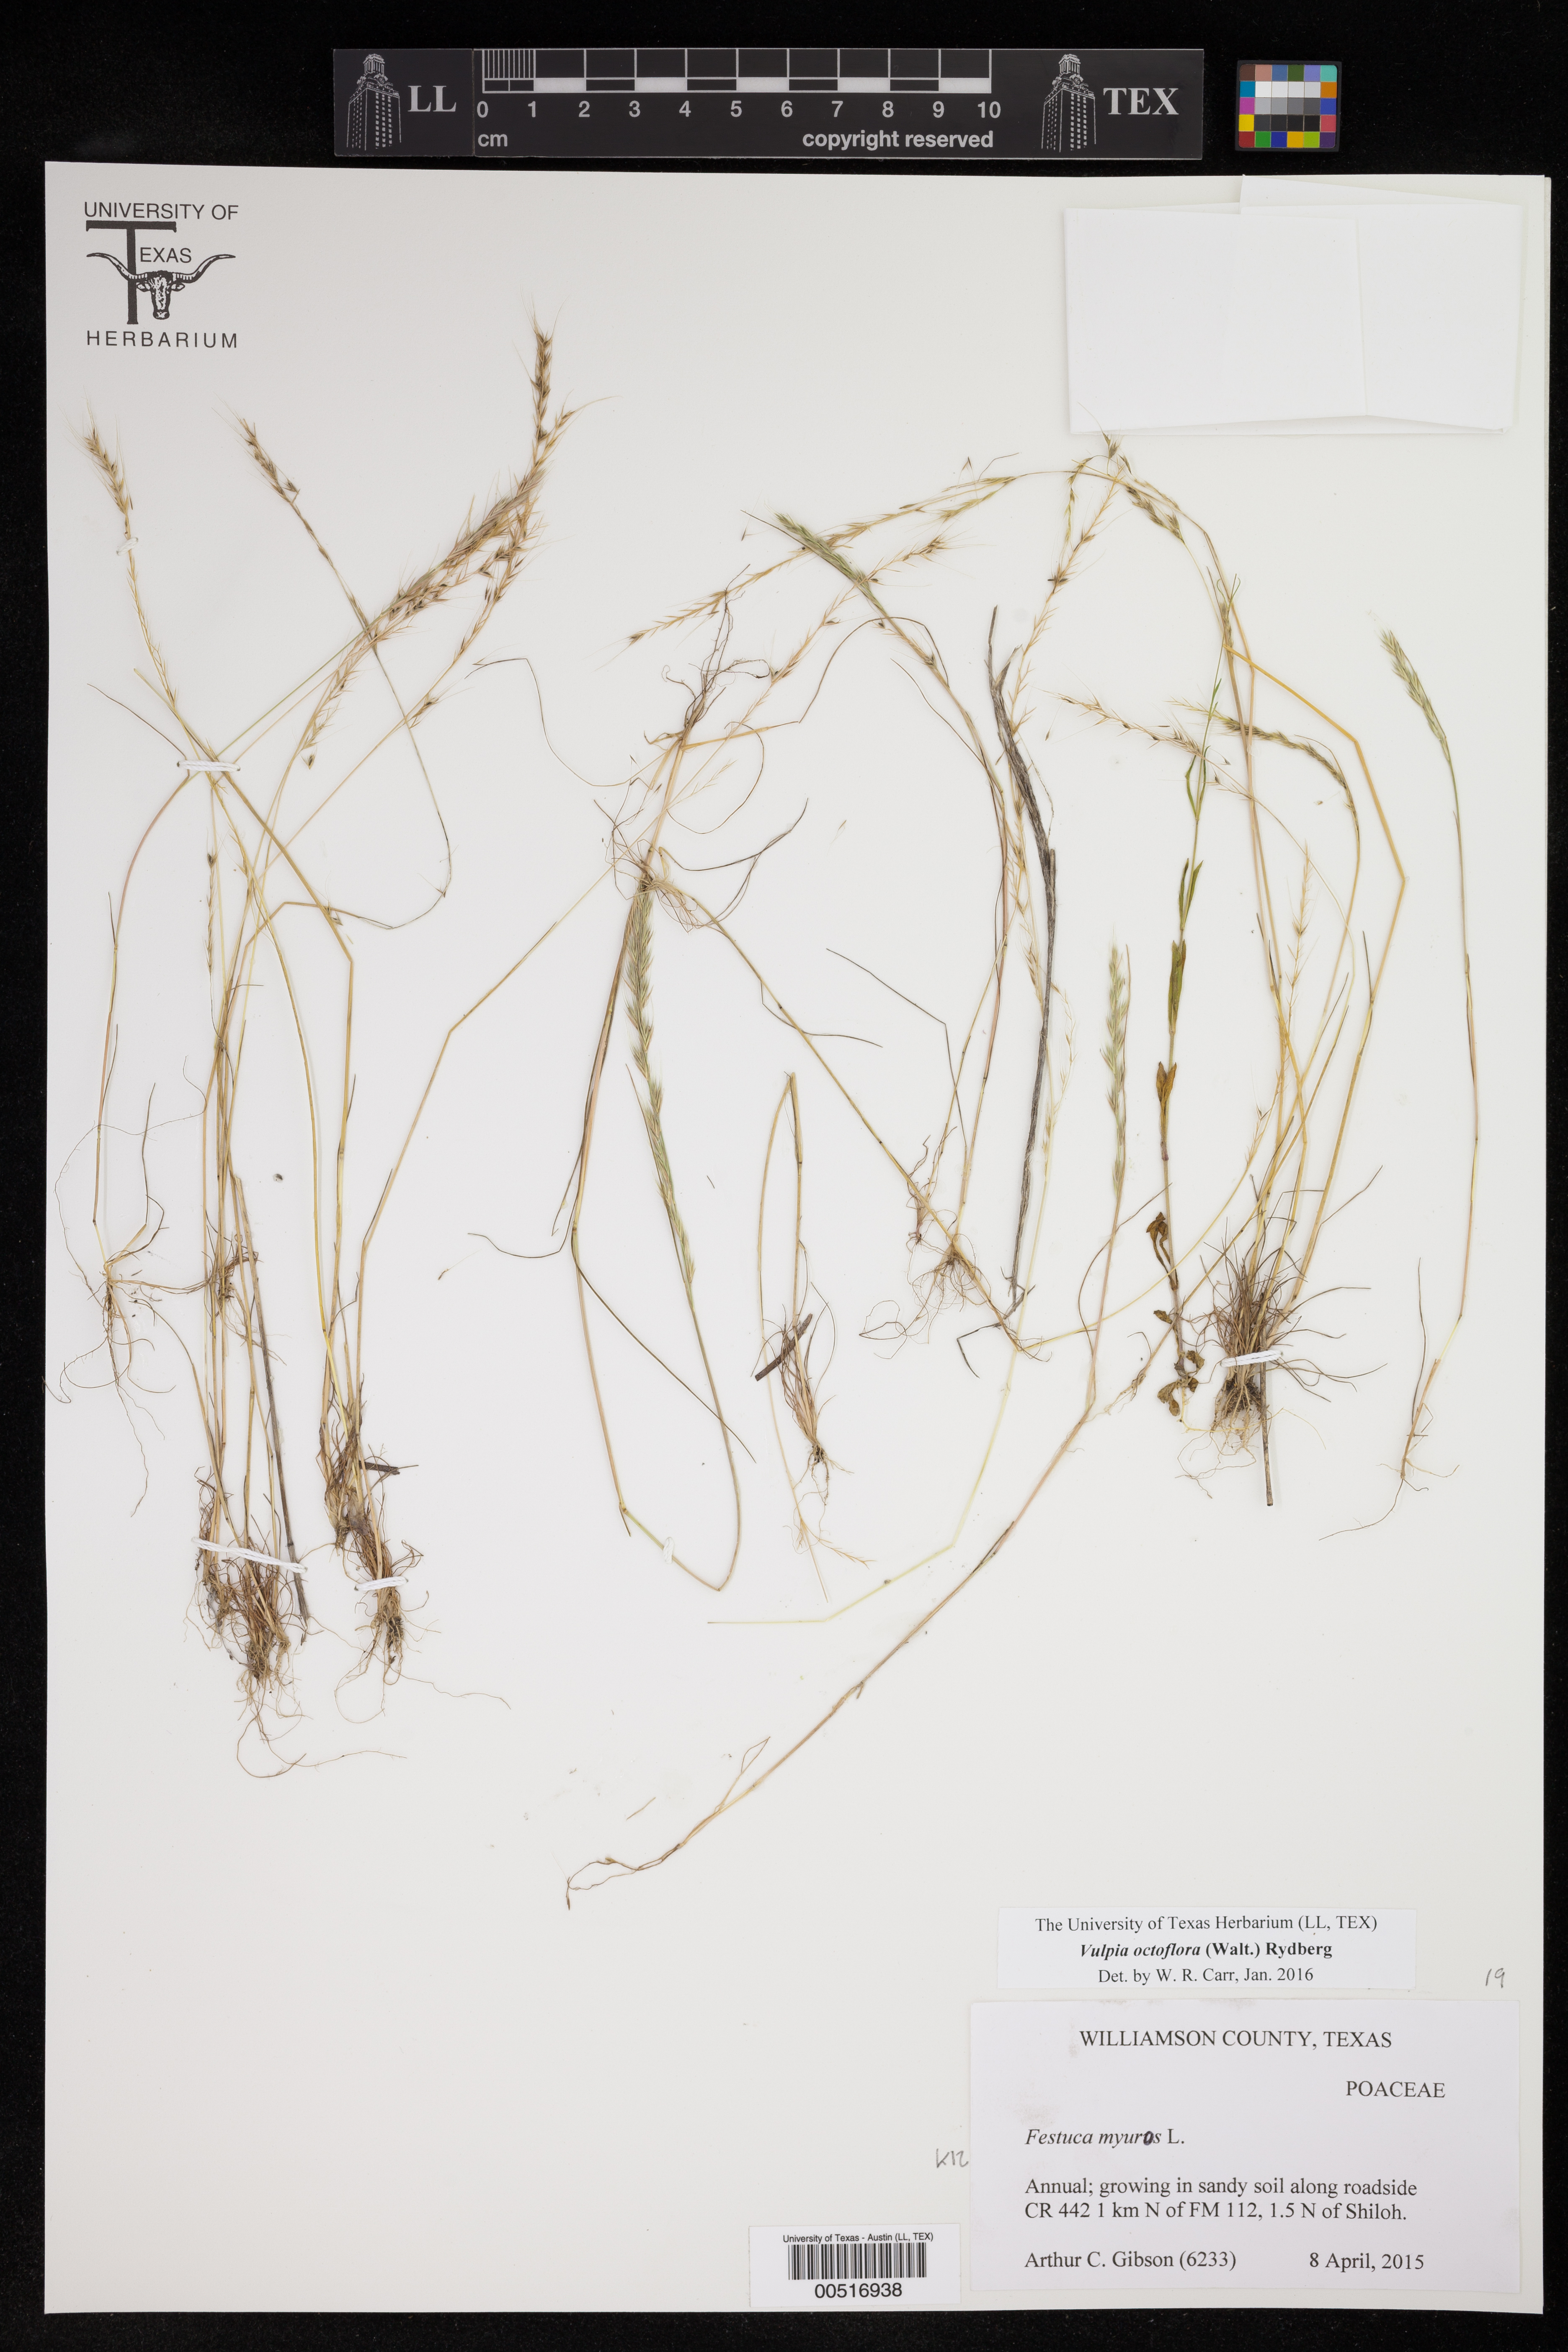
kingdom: Plantae
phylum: Tracheophyta
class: Liliopsida
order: Poales
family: Poaceae
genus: Festuca
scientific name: Festuca octoflora
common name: Sixweeks grass
